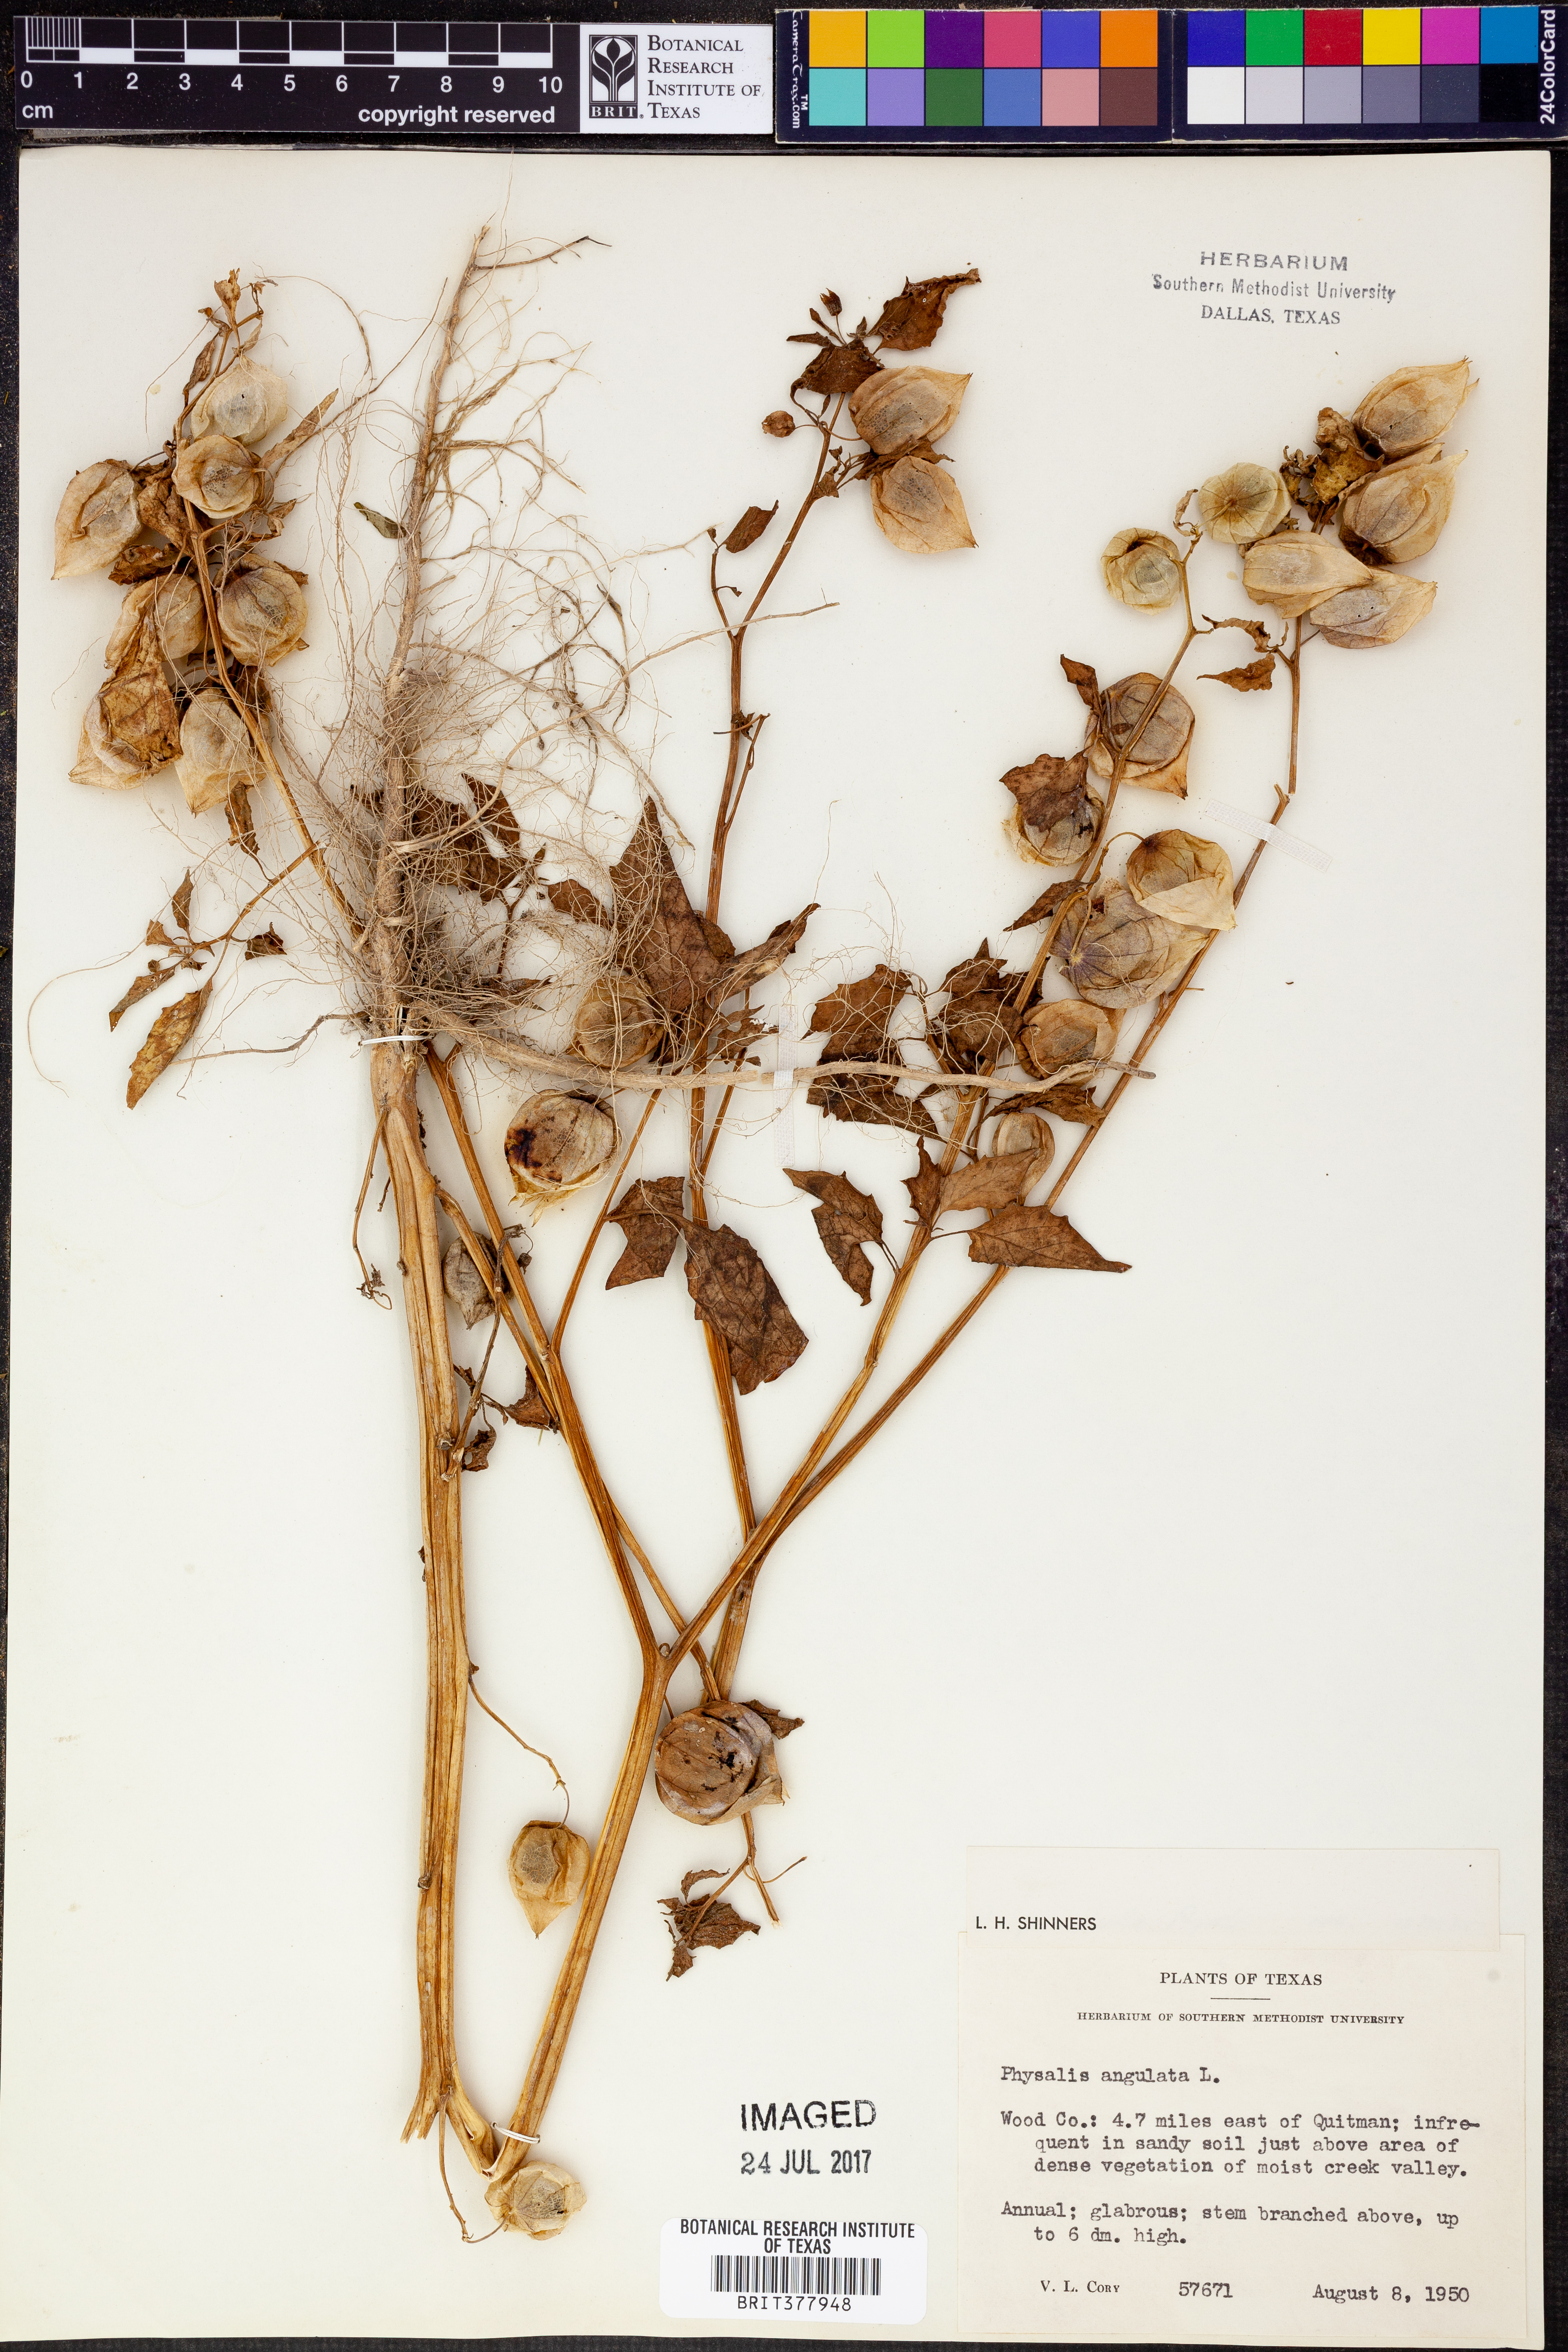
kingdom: Plantae
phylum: Tracheophyta
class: Magnoliopsida
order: Solanales
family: Solanaceae
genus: Physalis
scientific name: Physalis angulata
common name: Angular winter-cherry
